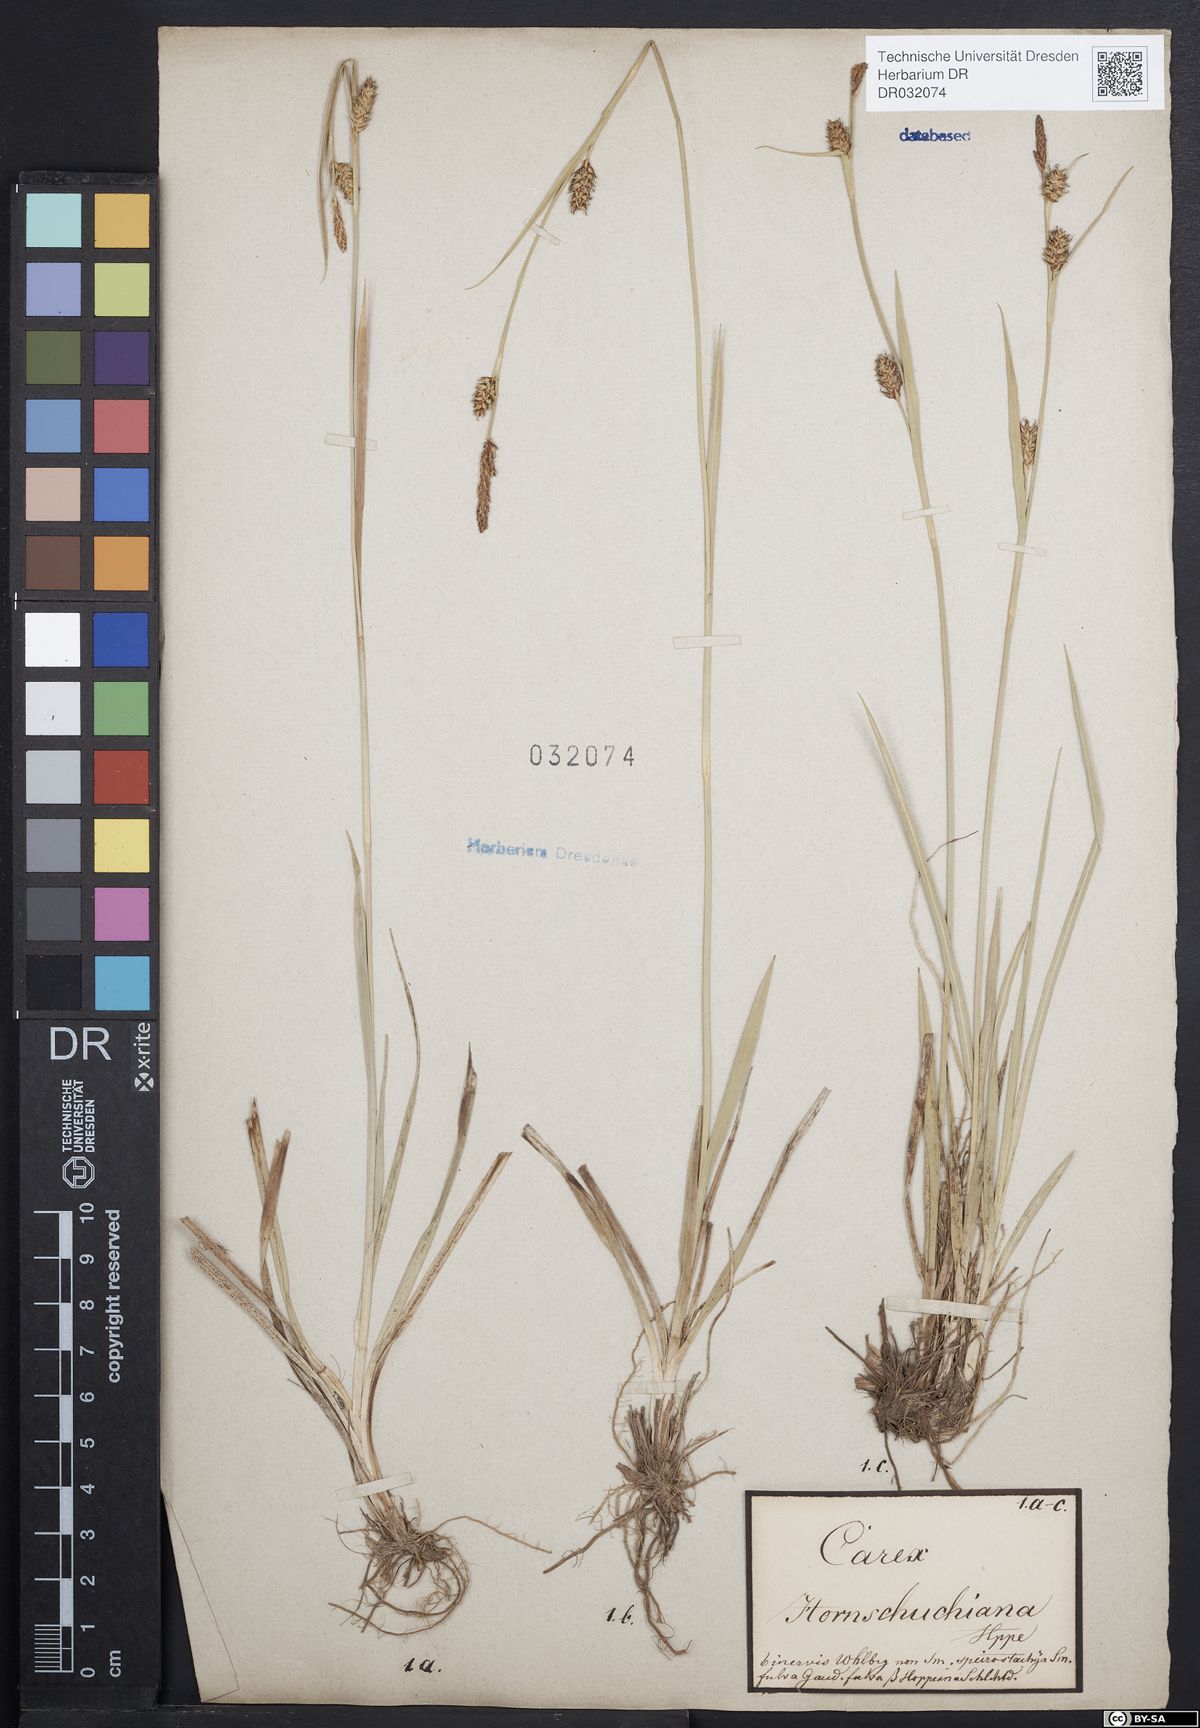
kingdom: Plantae
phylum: Tracheophyta
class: Liliopsida
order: Poales
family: Cyperaceae
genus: Carex
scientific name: Carex hostiana
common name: Tawny sedge
